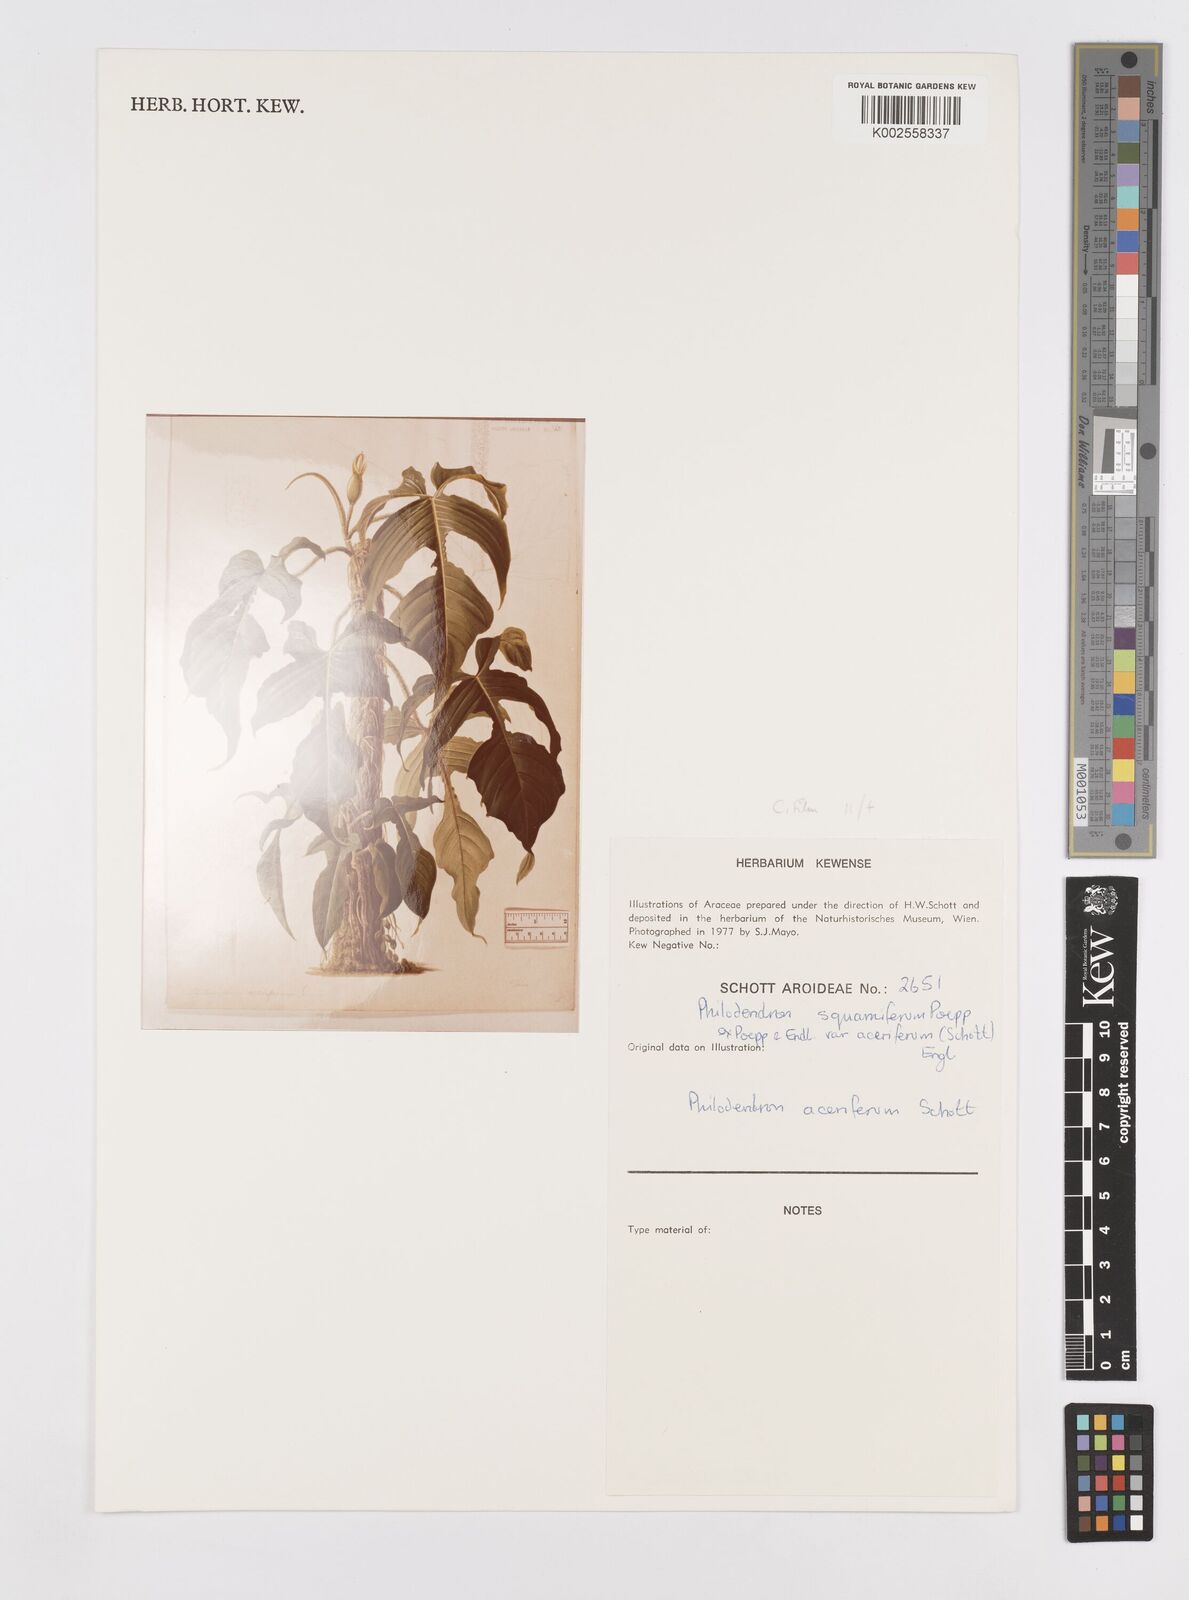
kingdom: Plantae
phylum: Tracheophyta
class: Liliopsida
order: Alismatales
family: Araceae
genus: Philodendron
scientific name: Philodendron squamiferum
